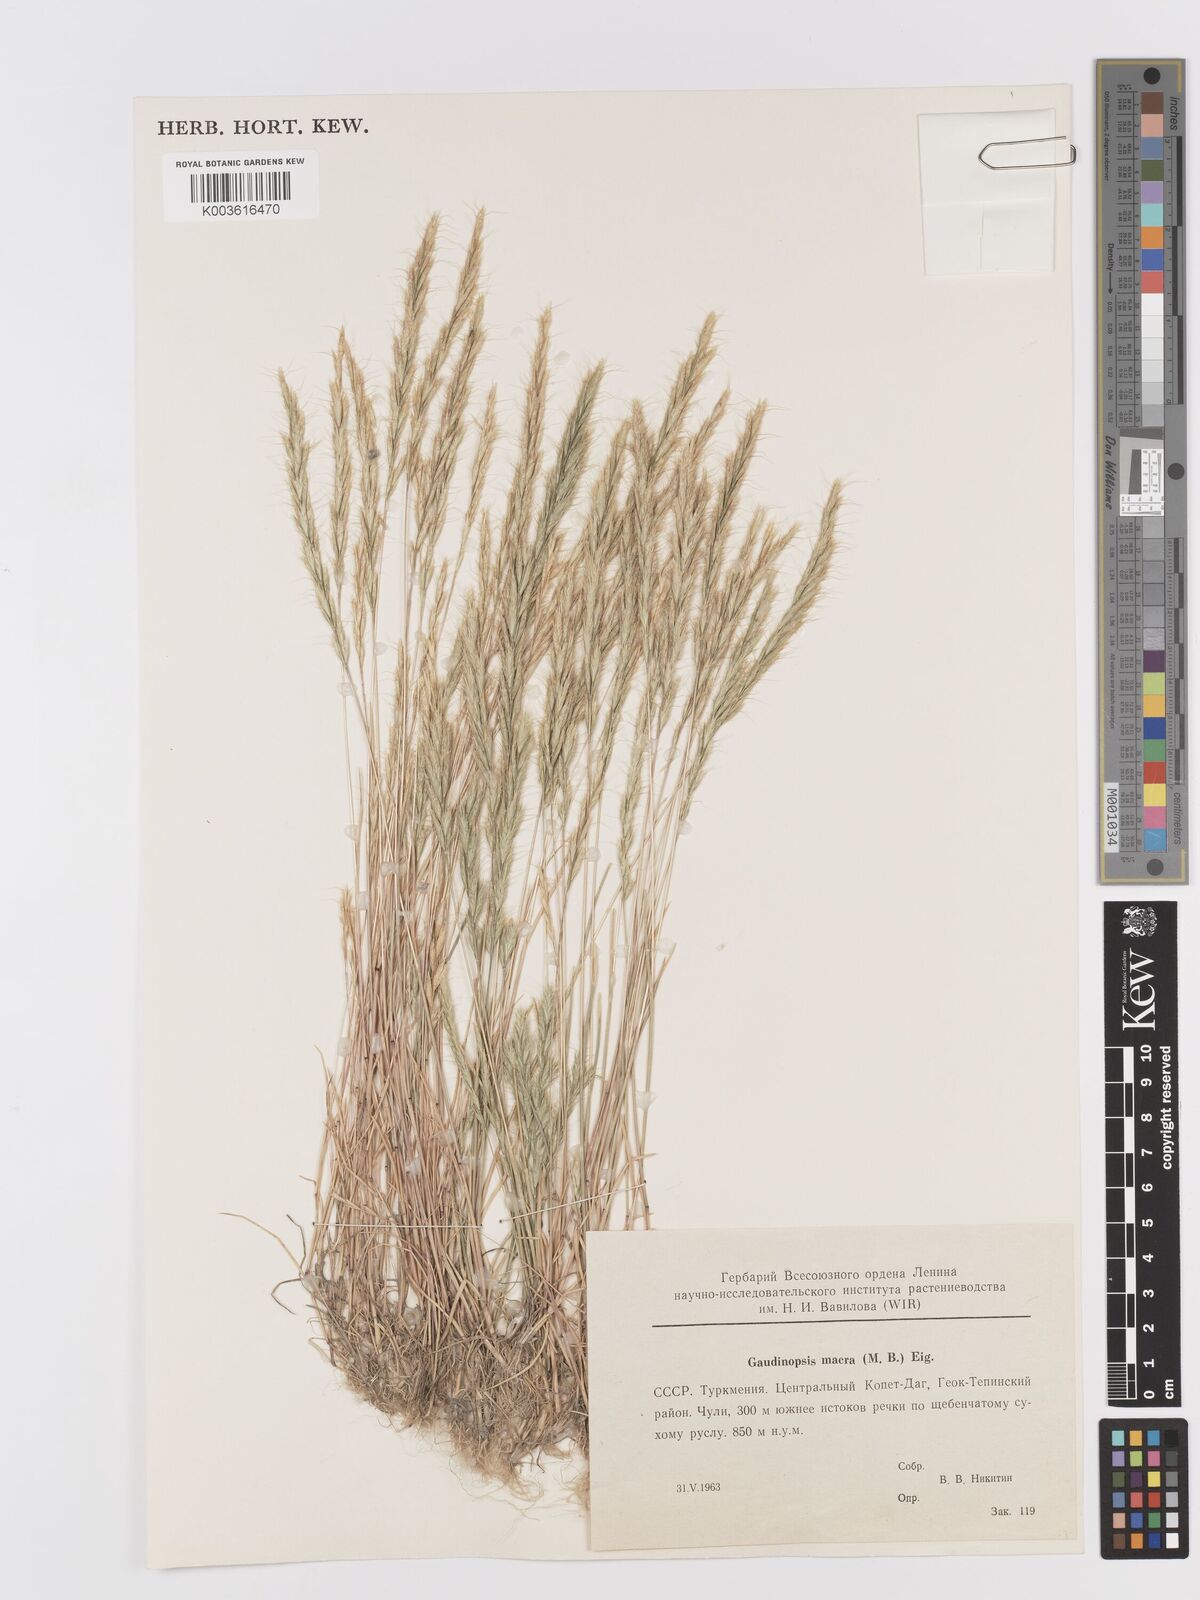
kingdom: Plantae
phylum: Tracheophyta
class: Liliopsida
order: Poales
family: Poaceae
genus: Ventenata
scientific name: Ventenata macra
